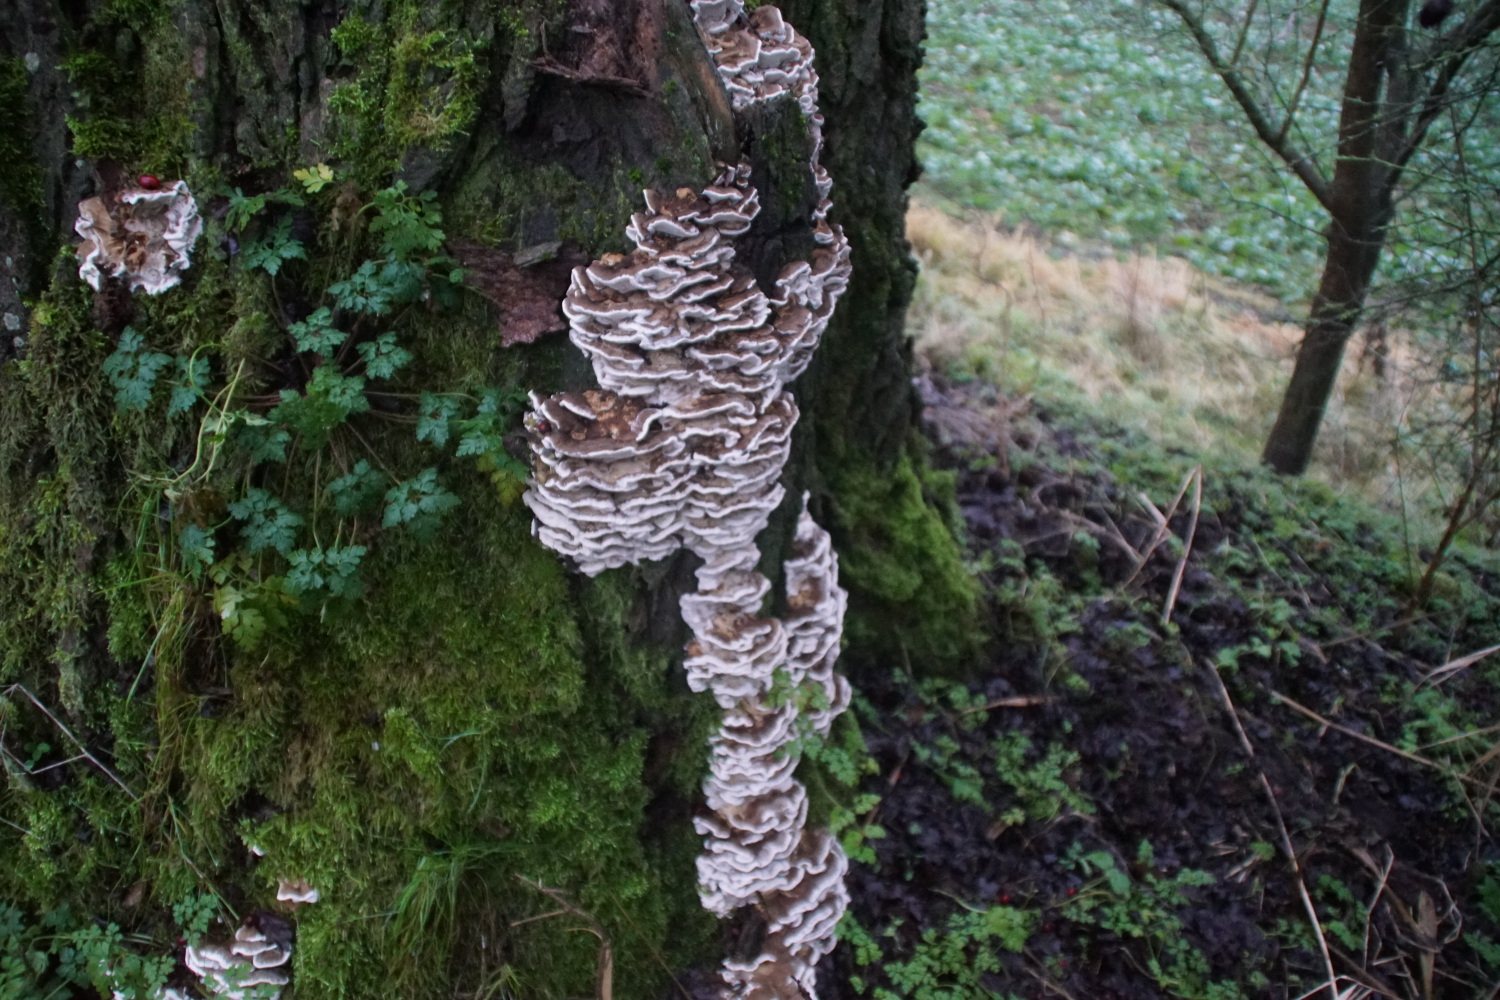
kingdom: Fungi
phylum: Basidiomycota
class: Agaricomycetes
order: Polyporales
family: Phanerochaetaceae
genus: Bjerkandera
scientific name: Bjerkandera fumosa
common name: grågul sodporesvamp
